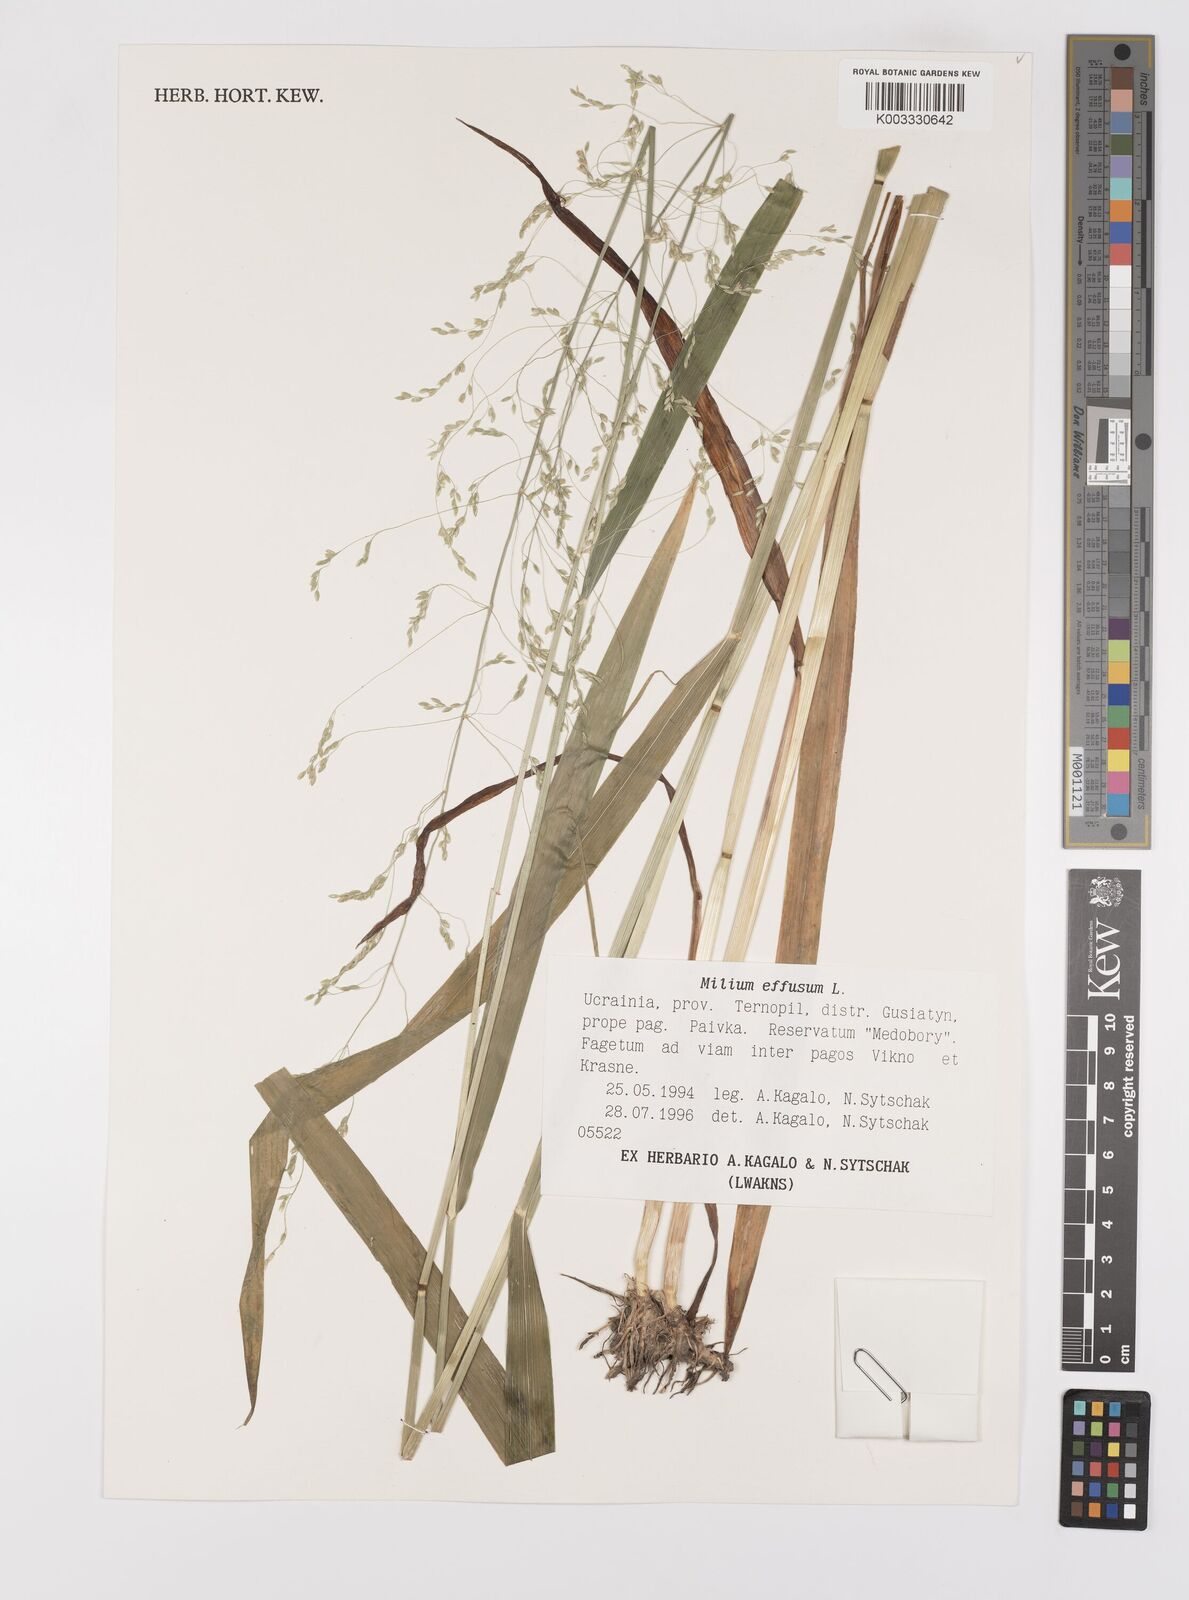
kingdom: Plantae
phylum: Tracheophyta
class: Liliopsida
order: Poales
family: Poaceae
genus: Milium
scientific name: Milium effusum
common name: Wood millet
